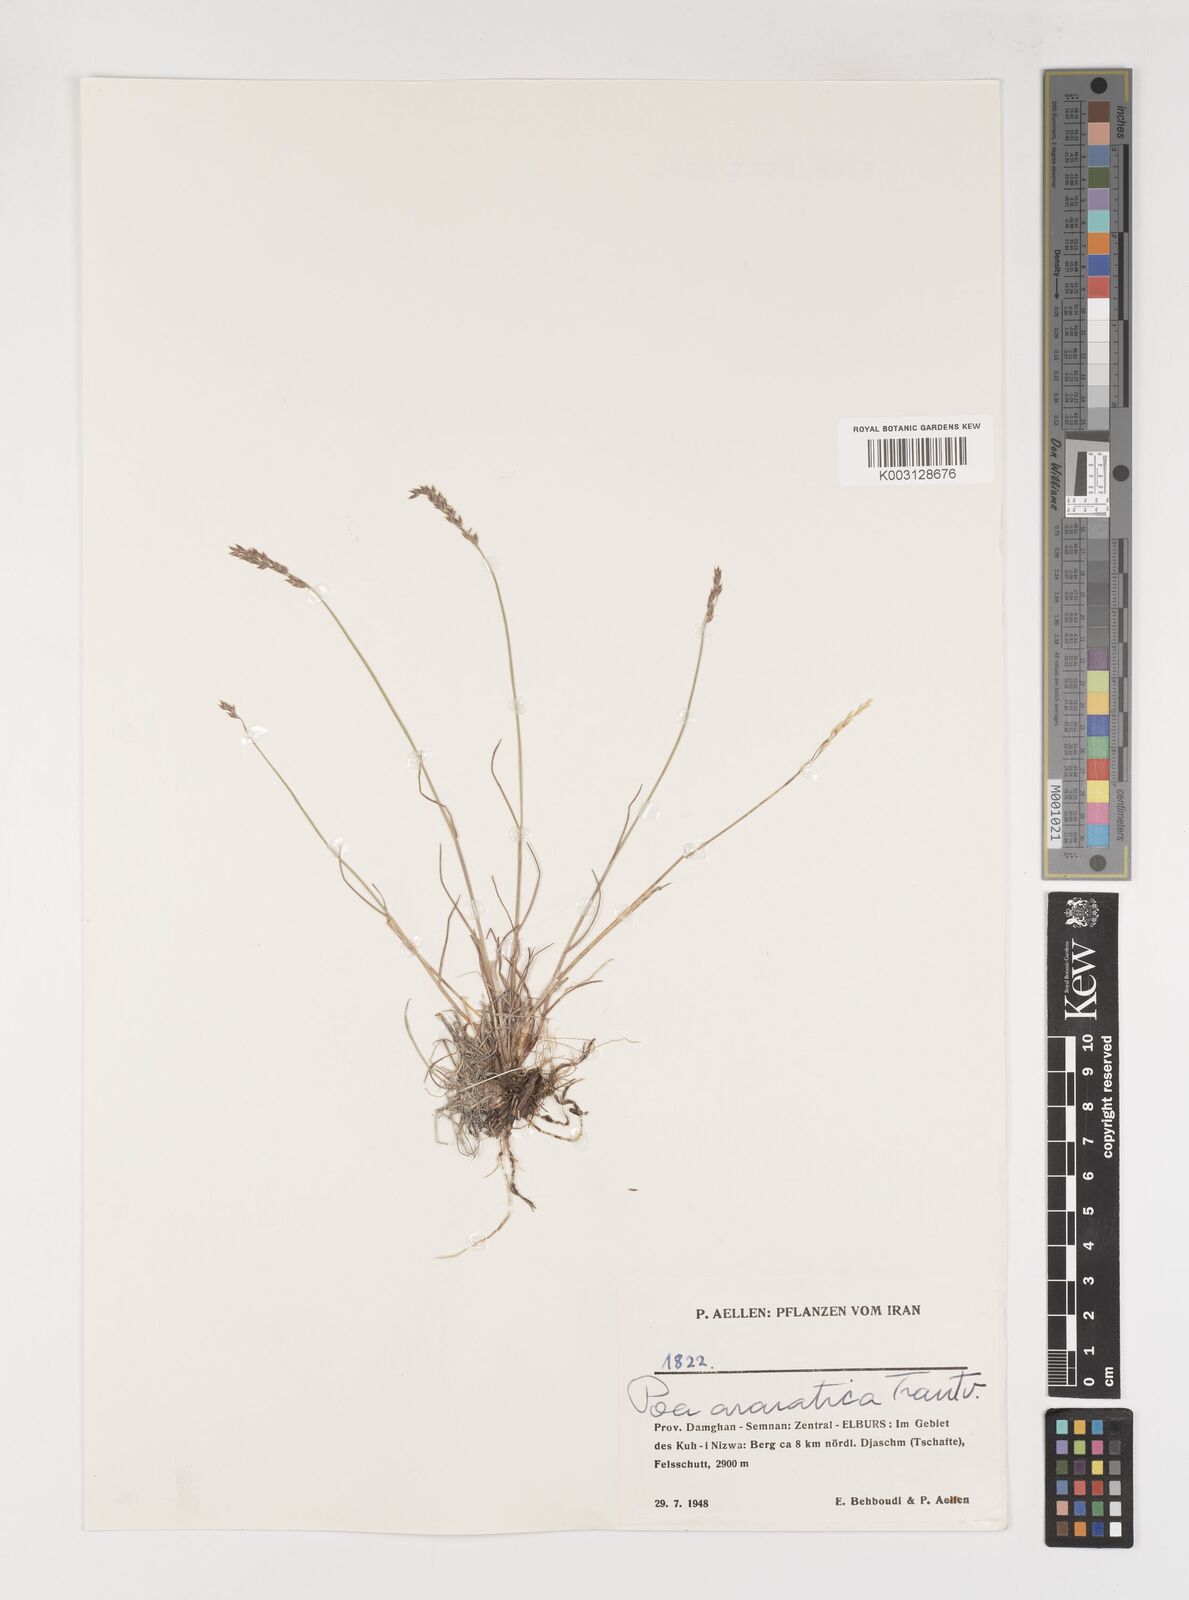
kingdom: Plantae
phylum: Tracheophyta
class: Liliopsida
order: Poales
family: Poaceae
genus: Poa
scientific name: Poa araratica
